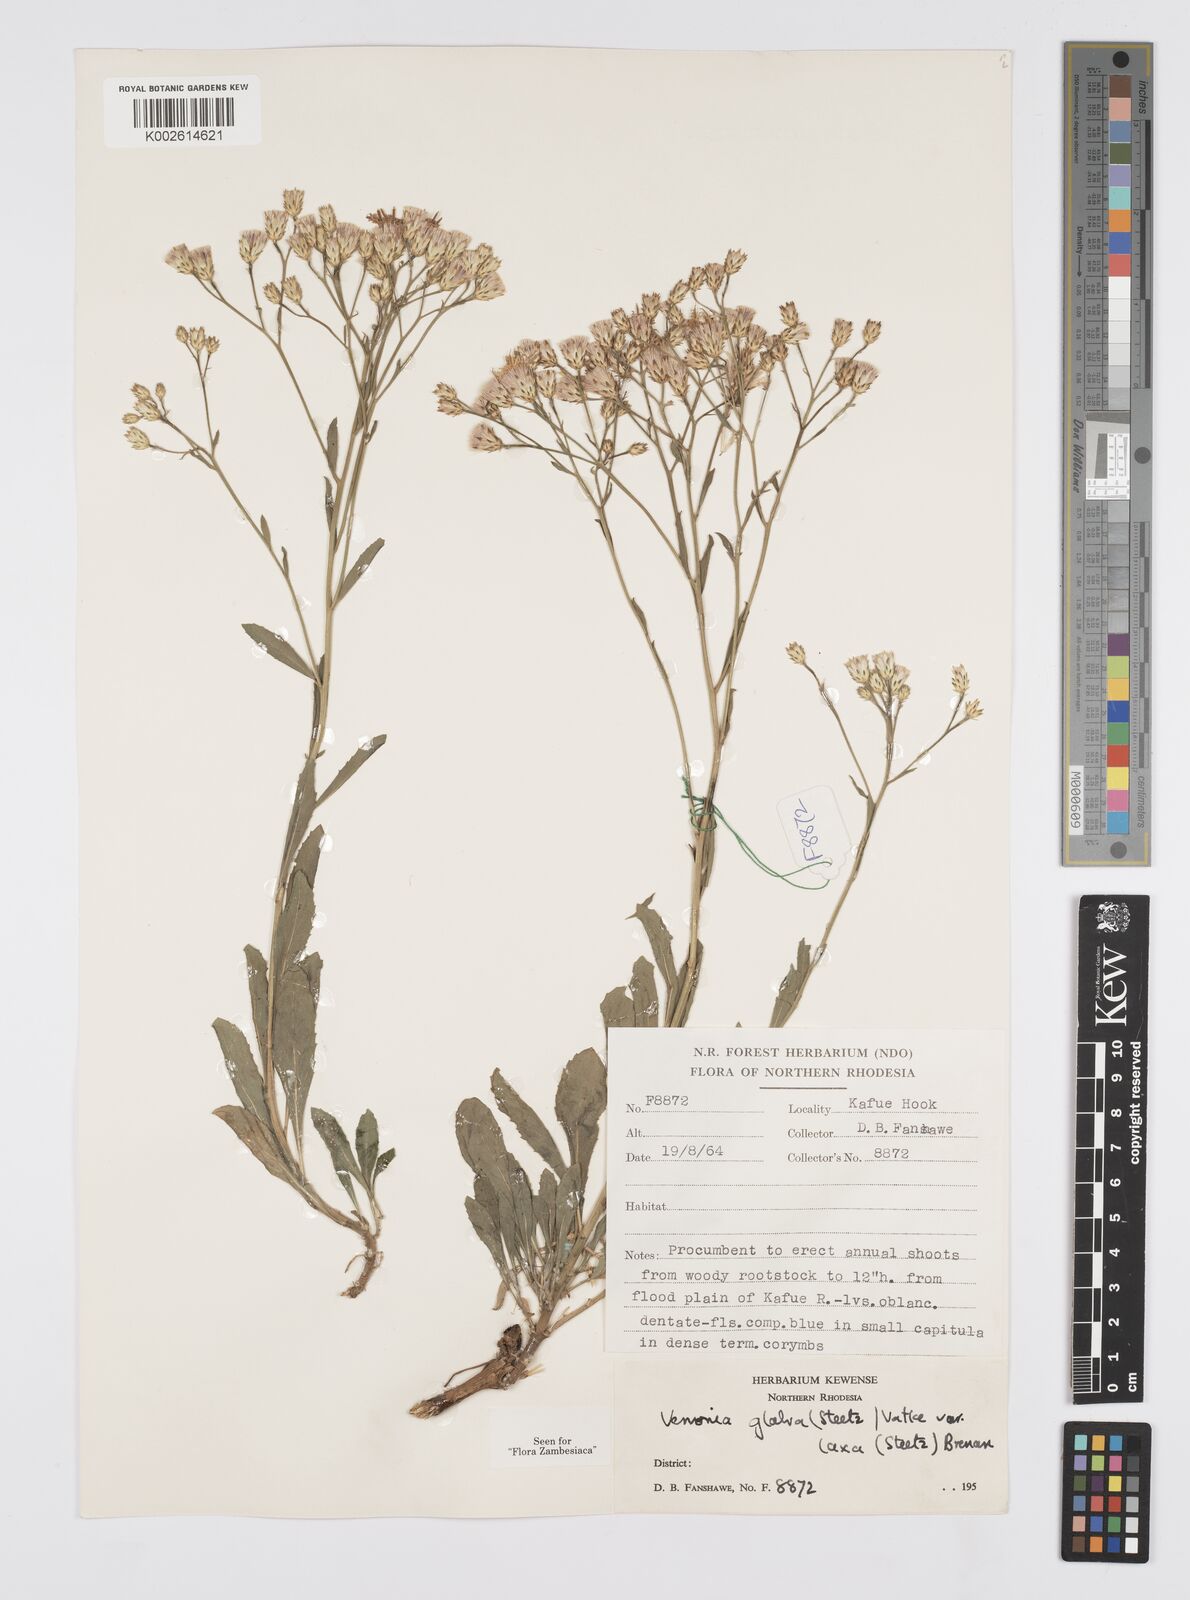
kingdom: Plantae
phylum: Tracheophyta
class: Magnoliopsida
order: Asterales
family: Asteraceae
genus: Linzia
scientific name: Linzia glabra
